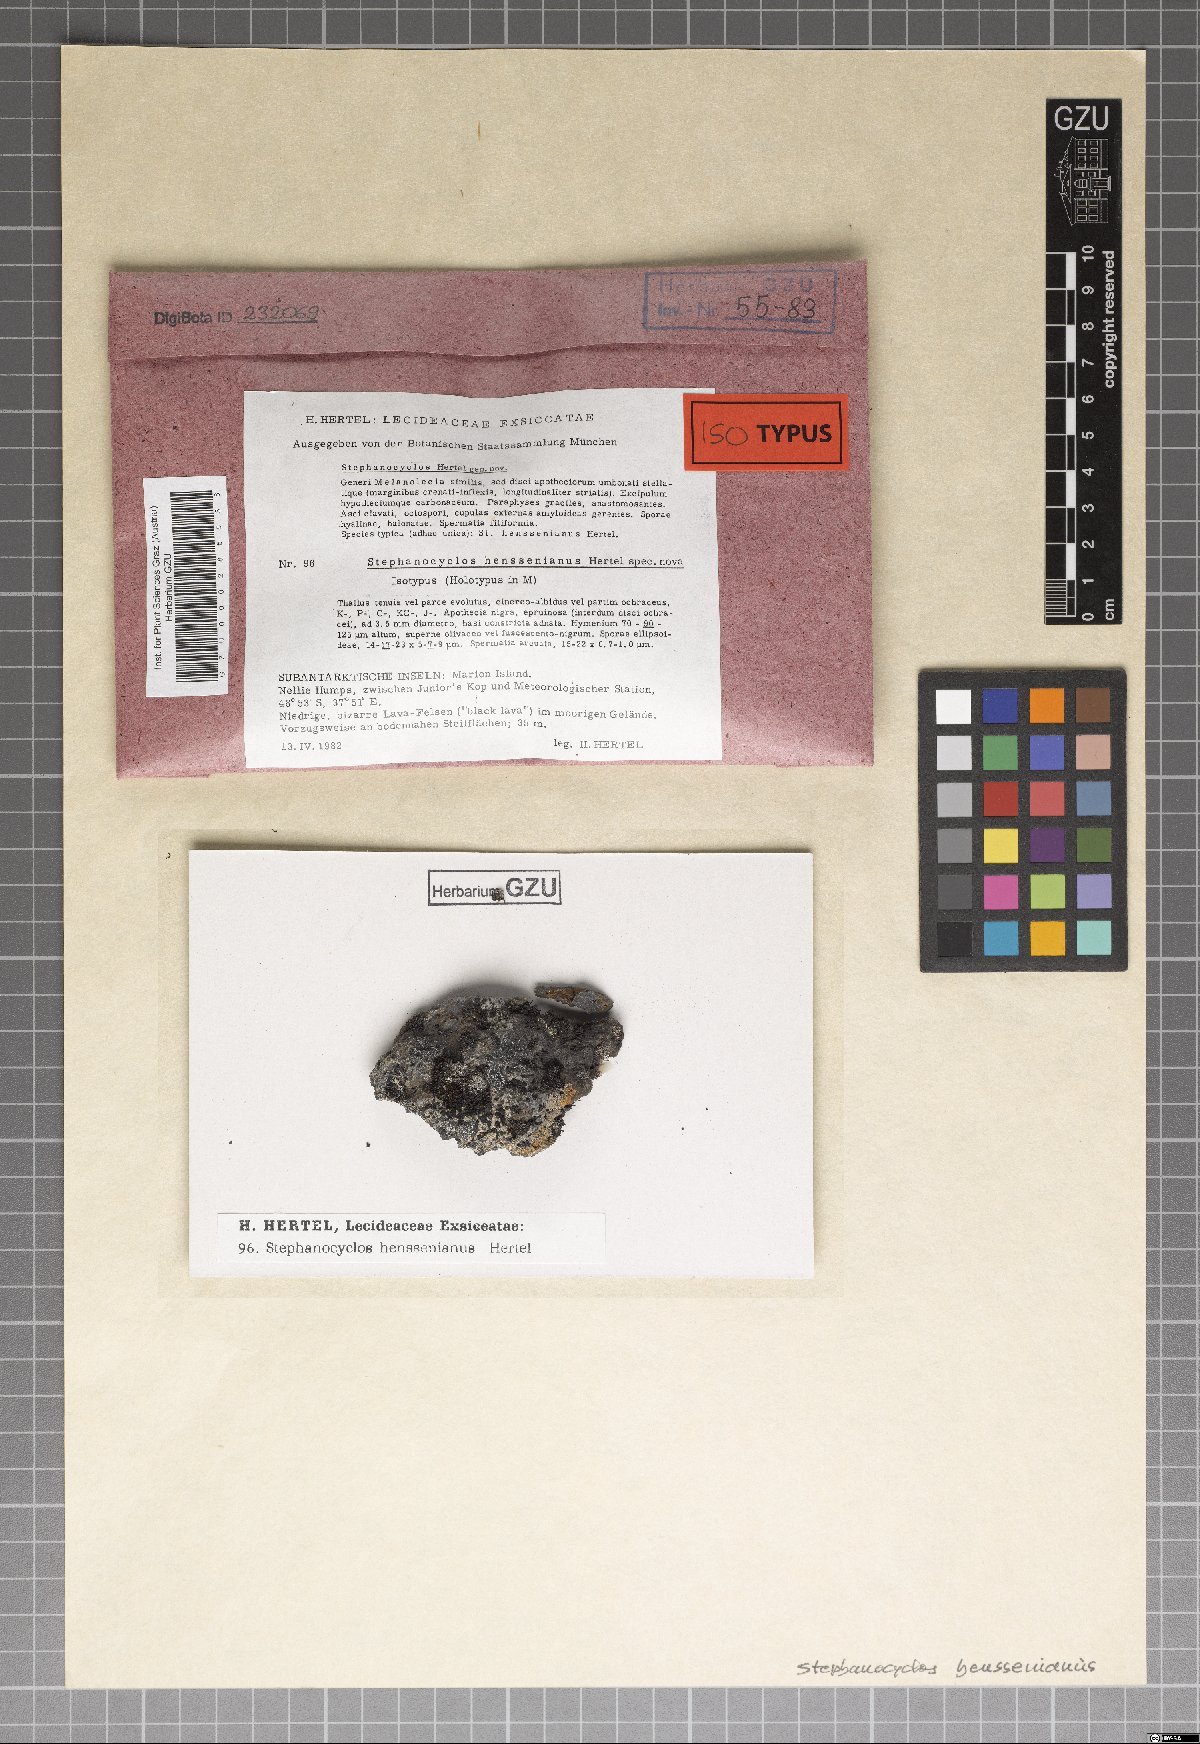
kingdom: Fungi
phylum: Ascomycota
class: Lecanoromycetes
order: Lecideales
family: Lecideaceae
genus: Stephanocyclos
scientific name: Stephanocyclos henssenianus
